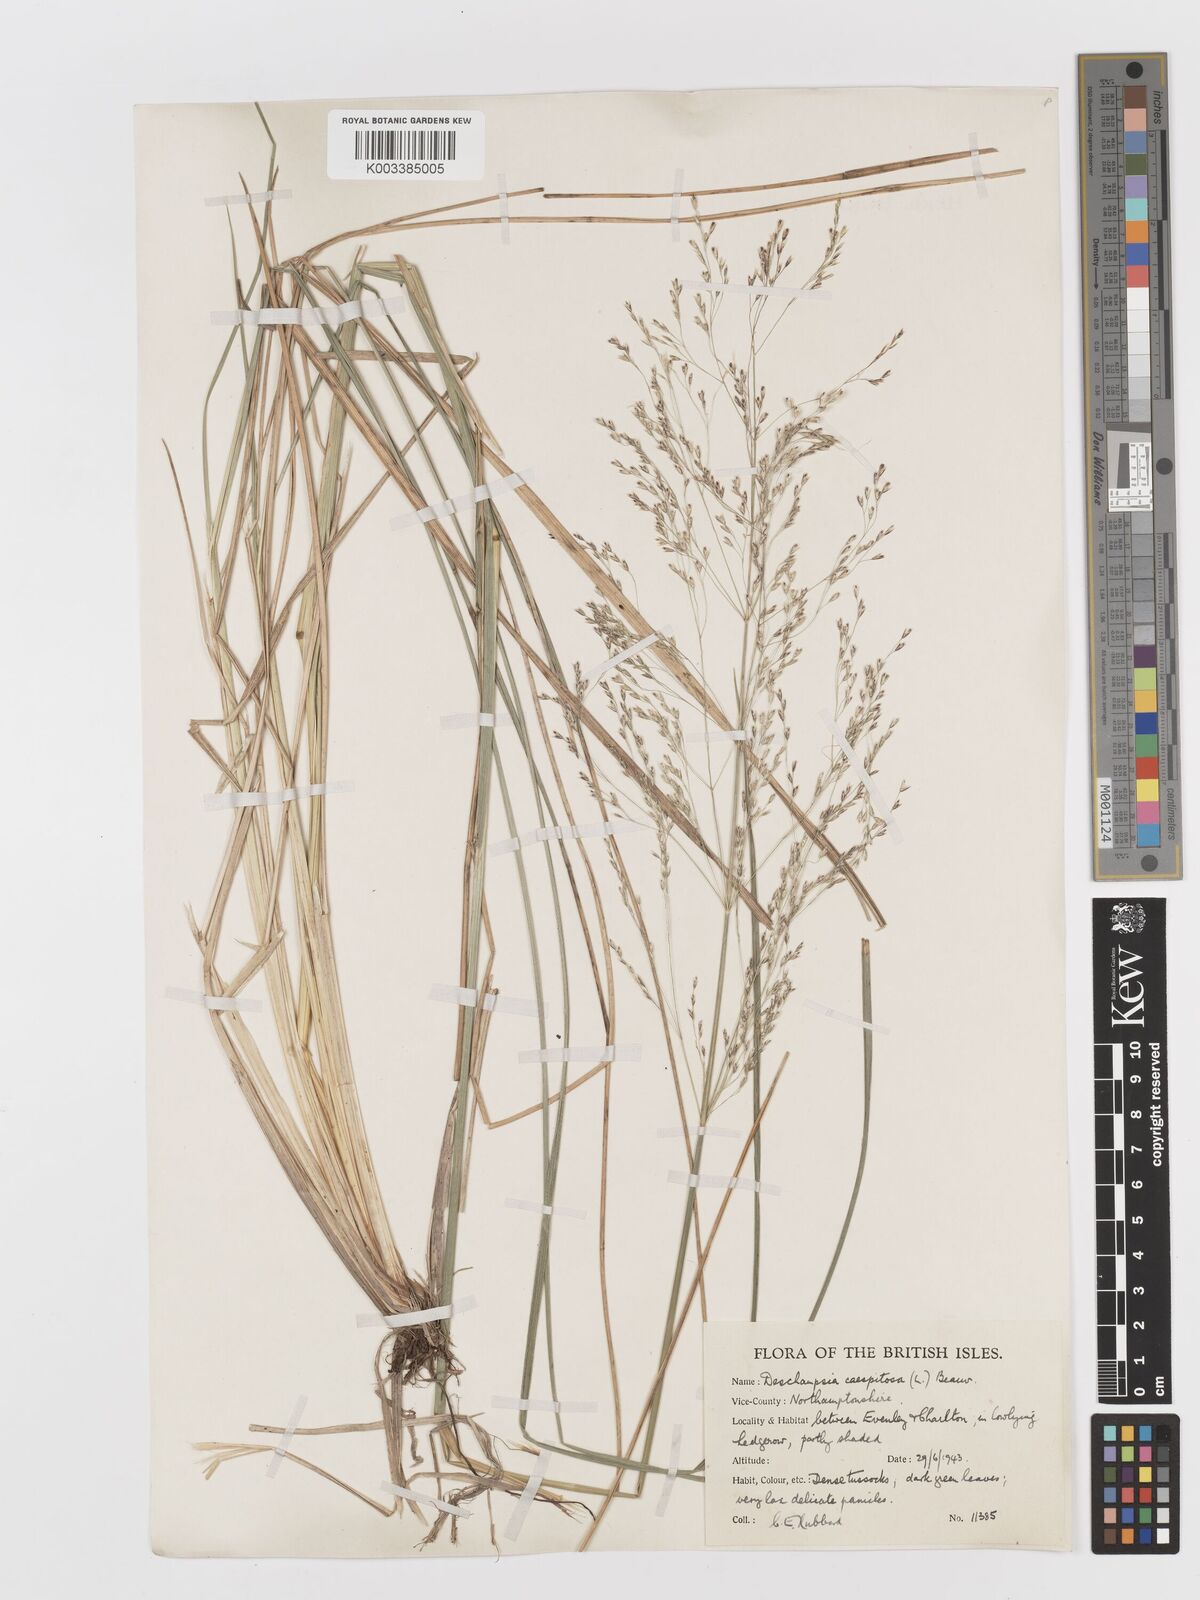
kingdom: Plantae
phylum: Tracheophyta
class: Liliopsida
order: Poales
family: Poaceae
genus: Deschampsia
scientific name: Deschampsia cespitosa
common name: Tufted hair-grass
